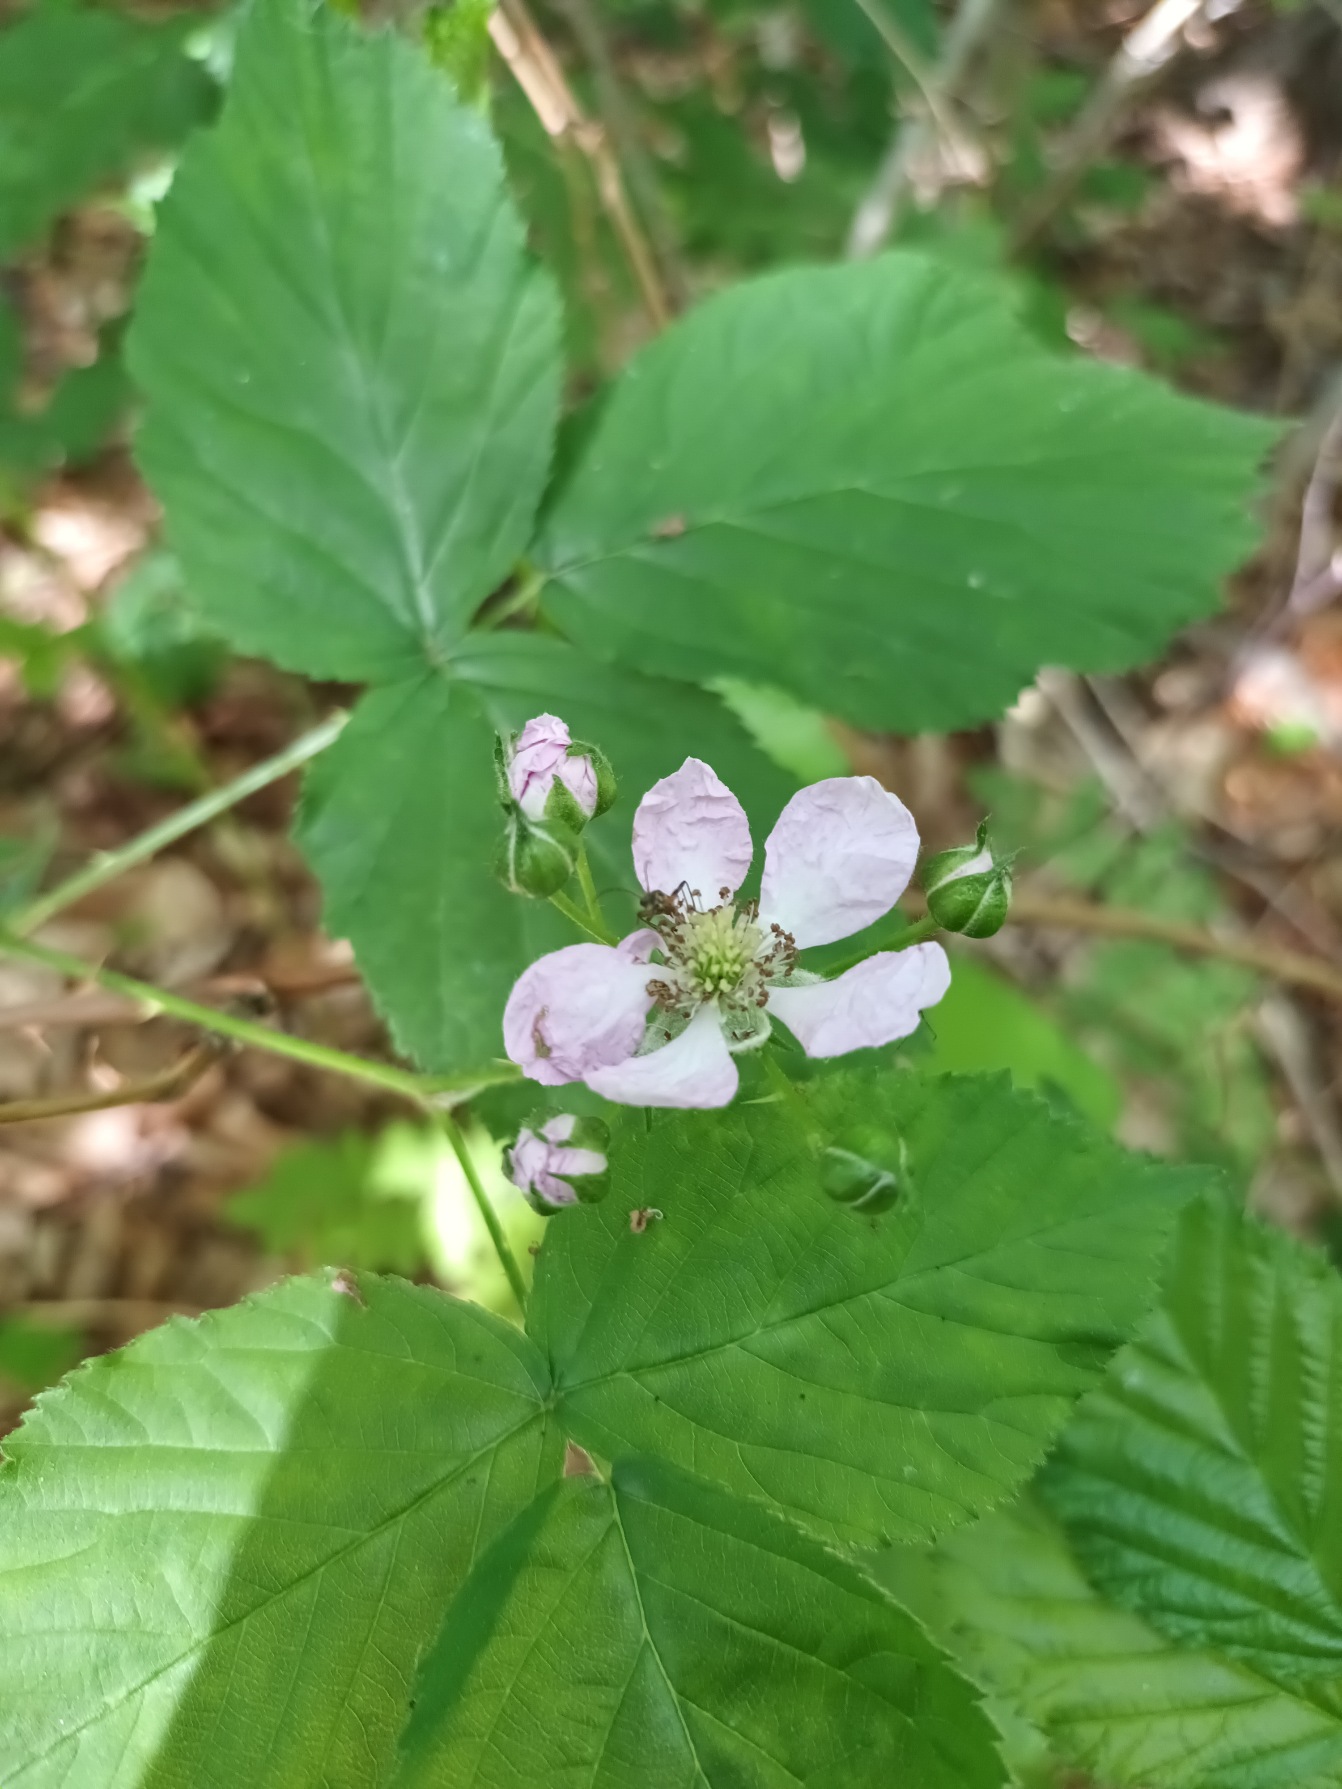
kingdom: Plantae
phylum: Tracheophyta
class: Magnoliopsida
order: Rosales
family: Rosaceae
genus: Rubus
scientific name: Rubus plicatus
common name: Almindelig brombær
